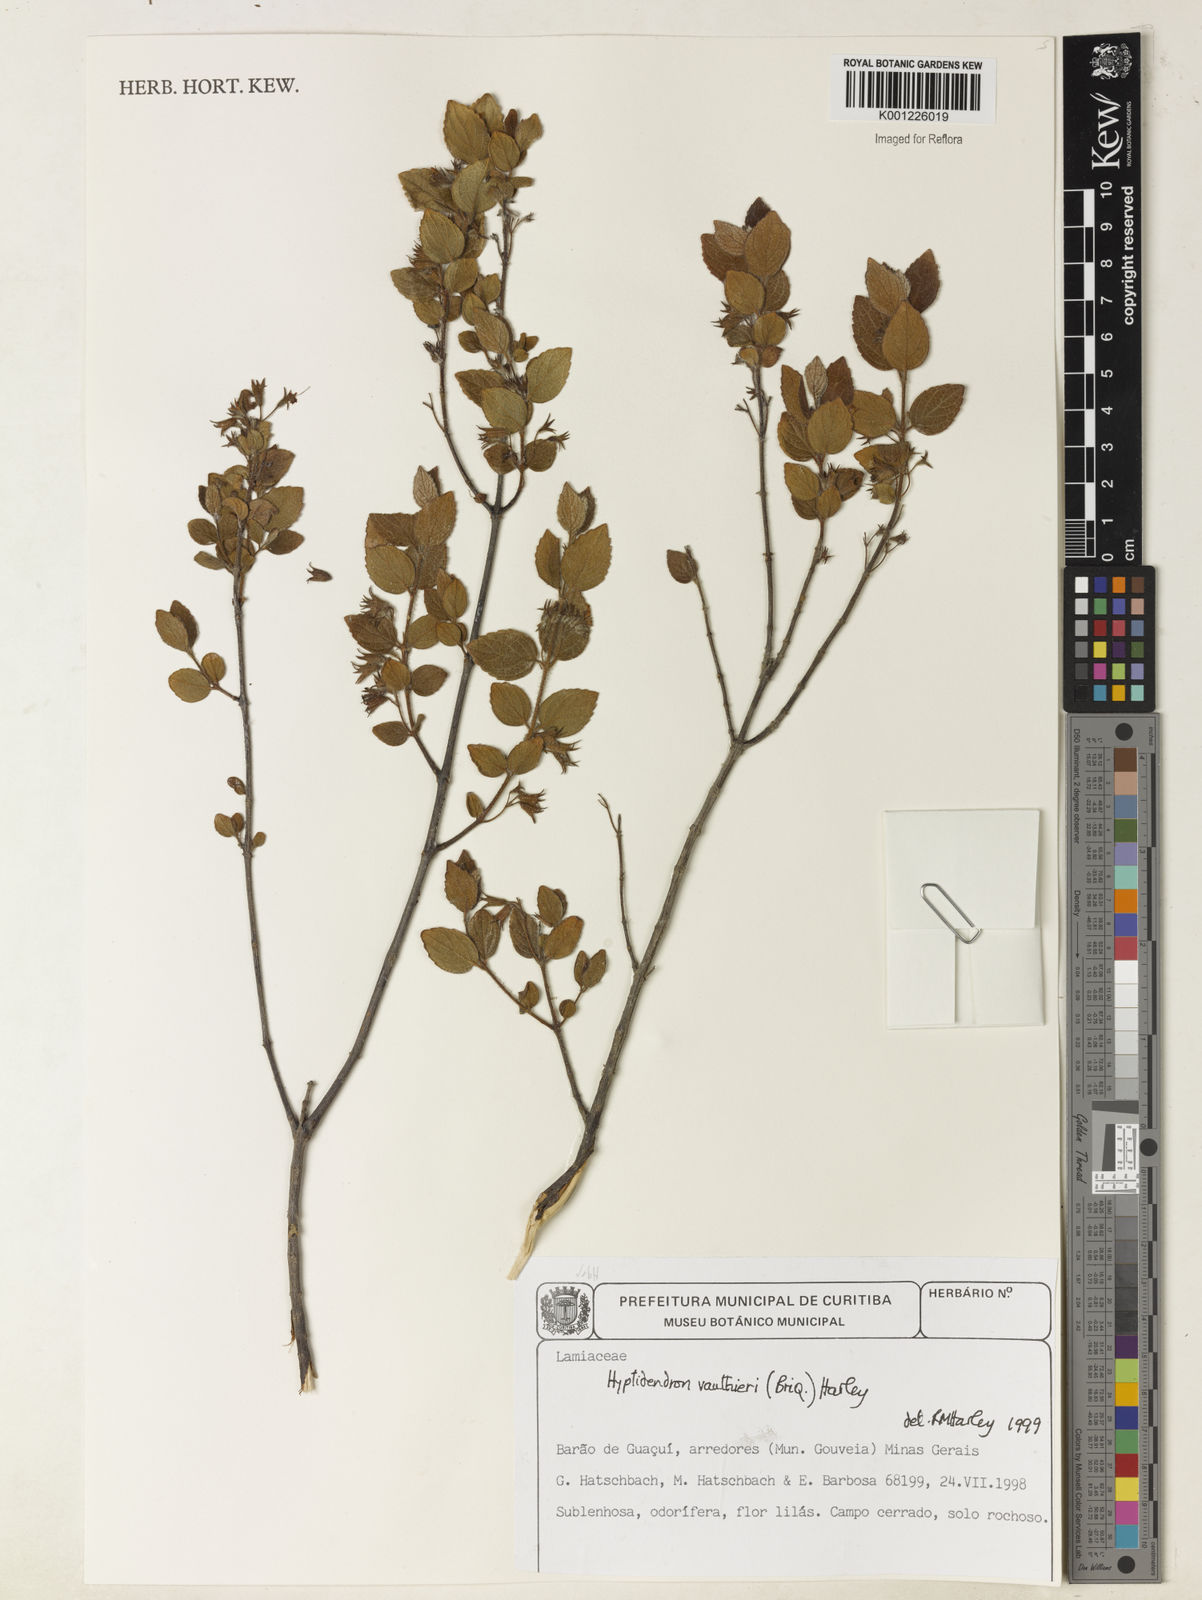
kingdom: Plantae
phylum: Tracheophyta
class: Magnoliopsida
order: Lamiales
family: Lamiaceae
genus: Hyptidendron
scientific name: Hyptidendron vauthieri
